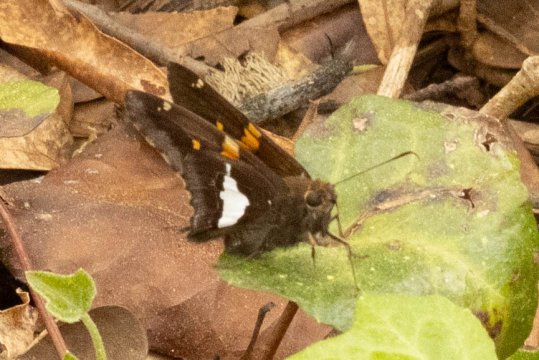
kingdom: Animalia
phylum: Arthropoda
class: Insecta
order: Lepidoptera
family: Hesperiidae
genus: Epargyreus
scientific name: Epargyreus clarus
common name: Silver-spotted Skipper
